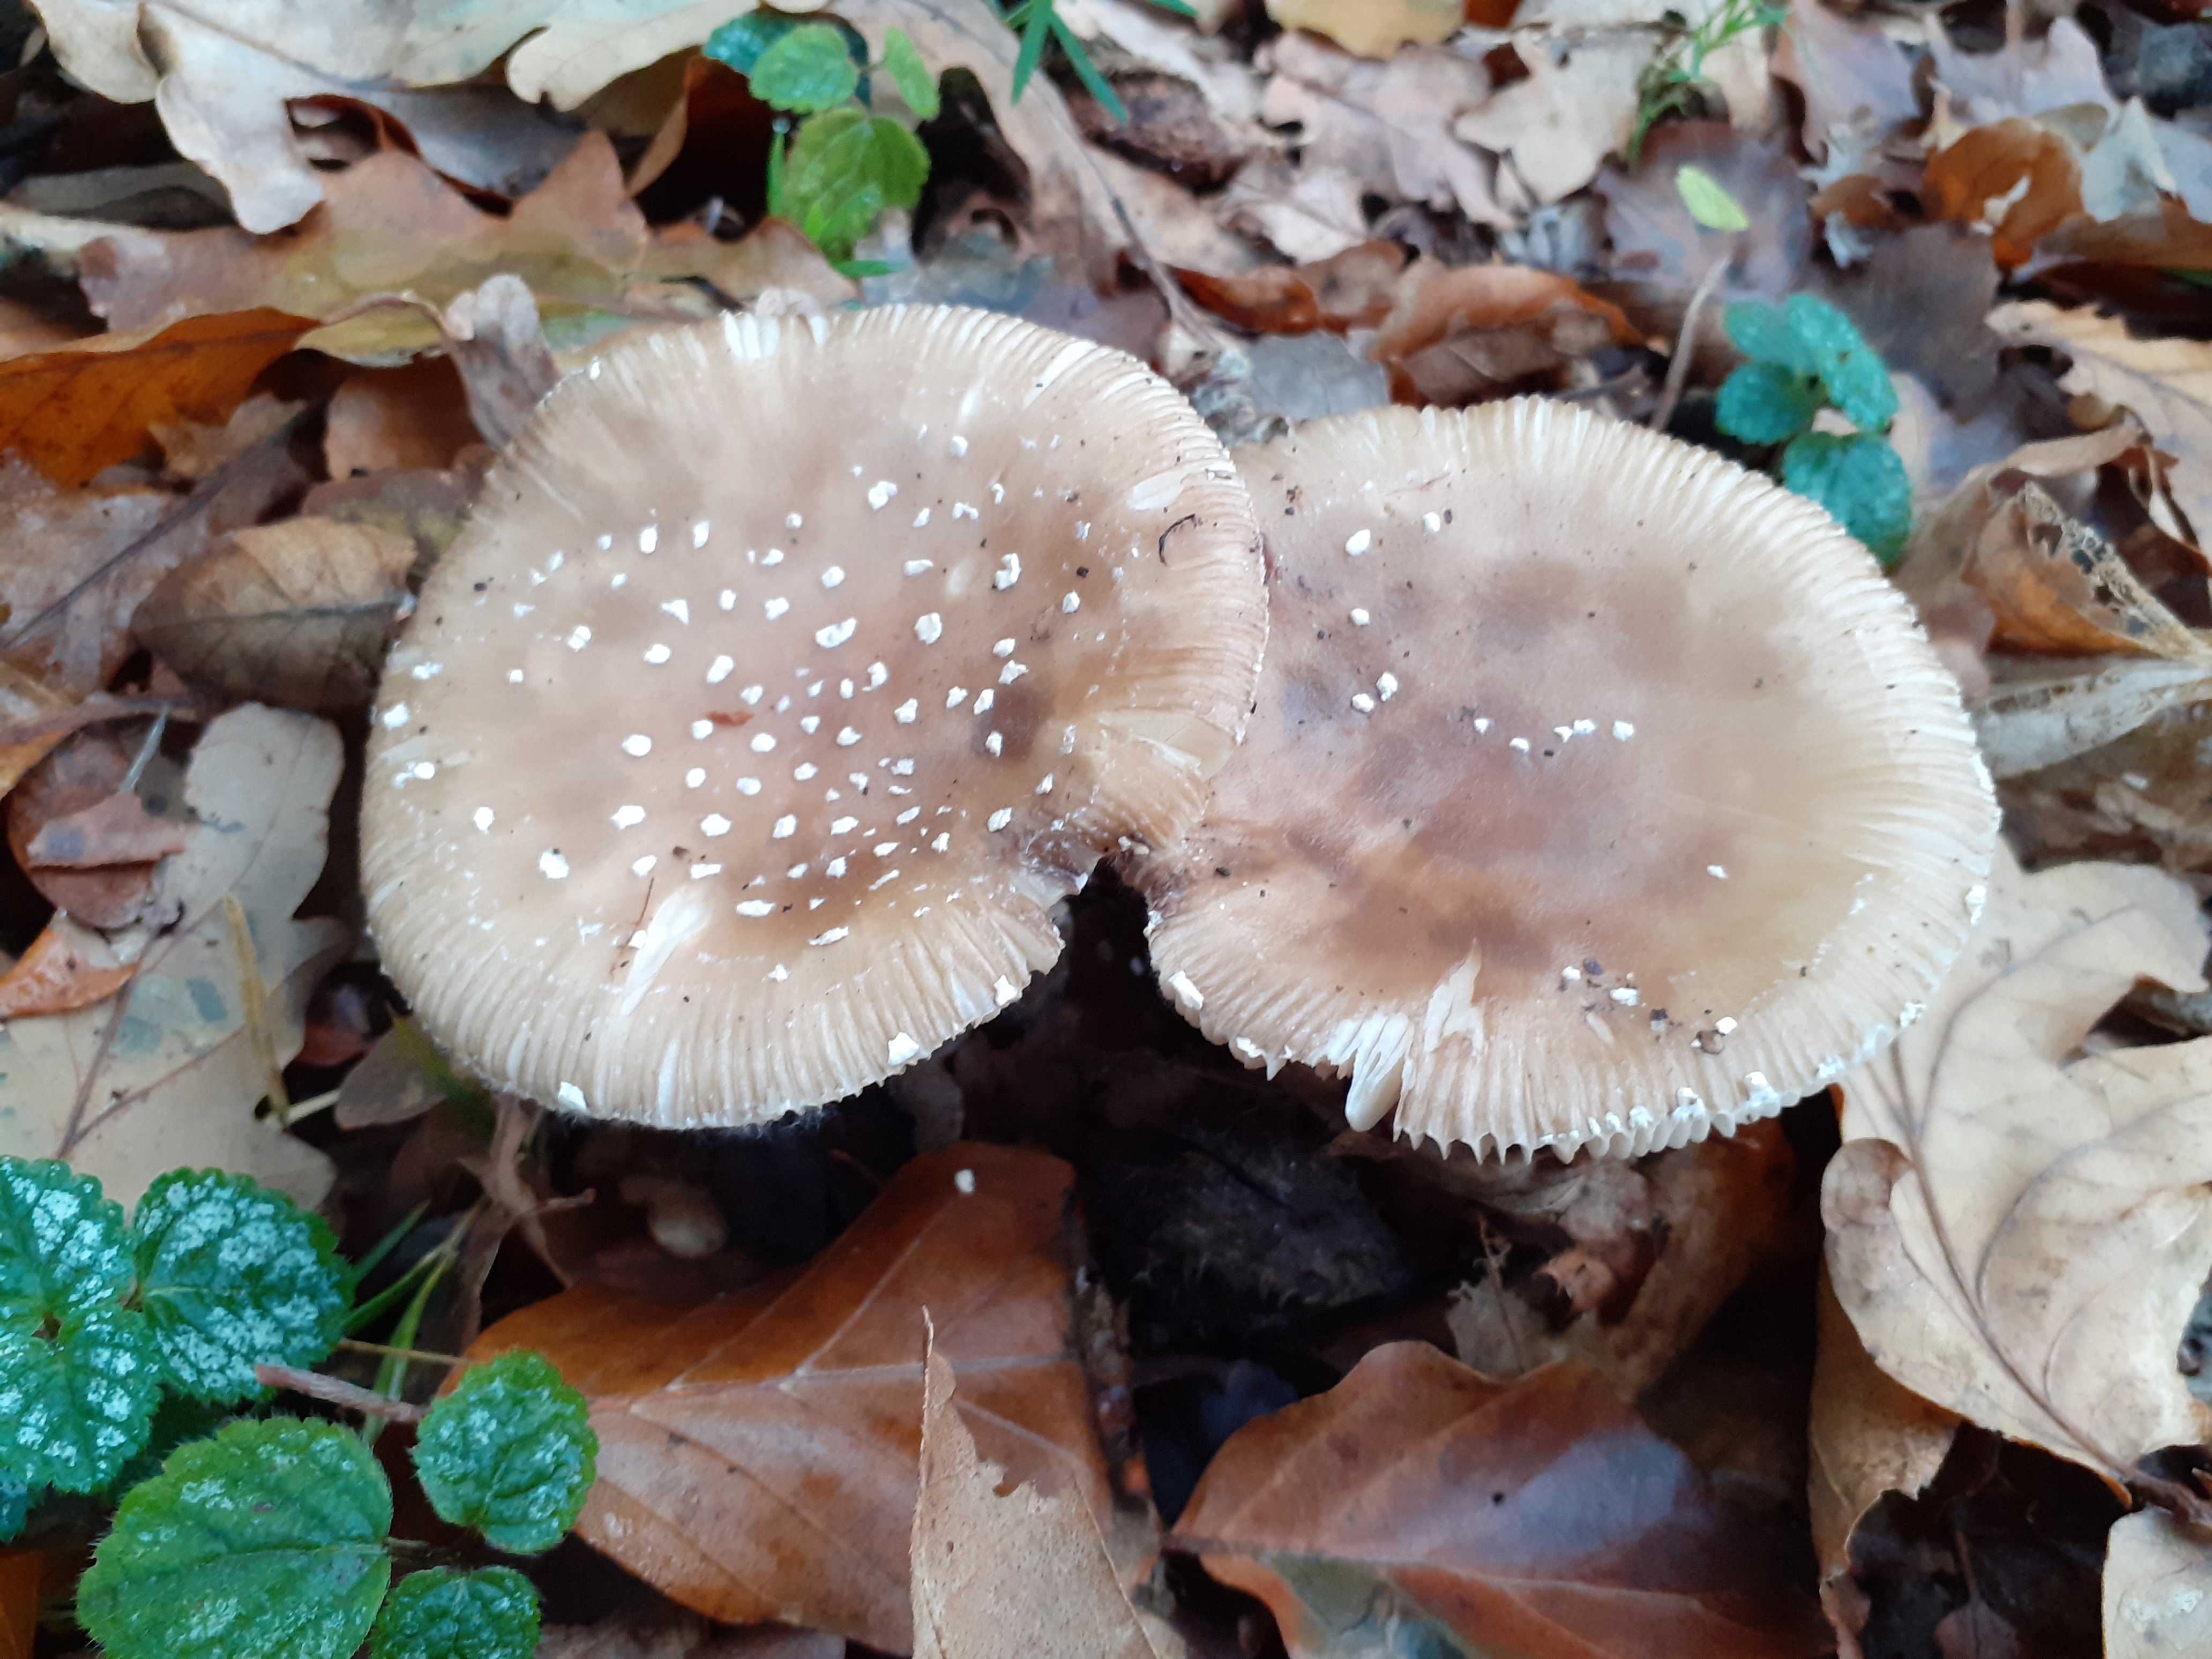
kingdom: Fungi
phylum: Basidiomycota
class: Agaricomycetes
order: Agaricales
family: Amanitaceae
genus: Amanita
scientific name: Amanita pantherina
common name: panter-fluesvamp
